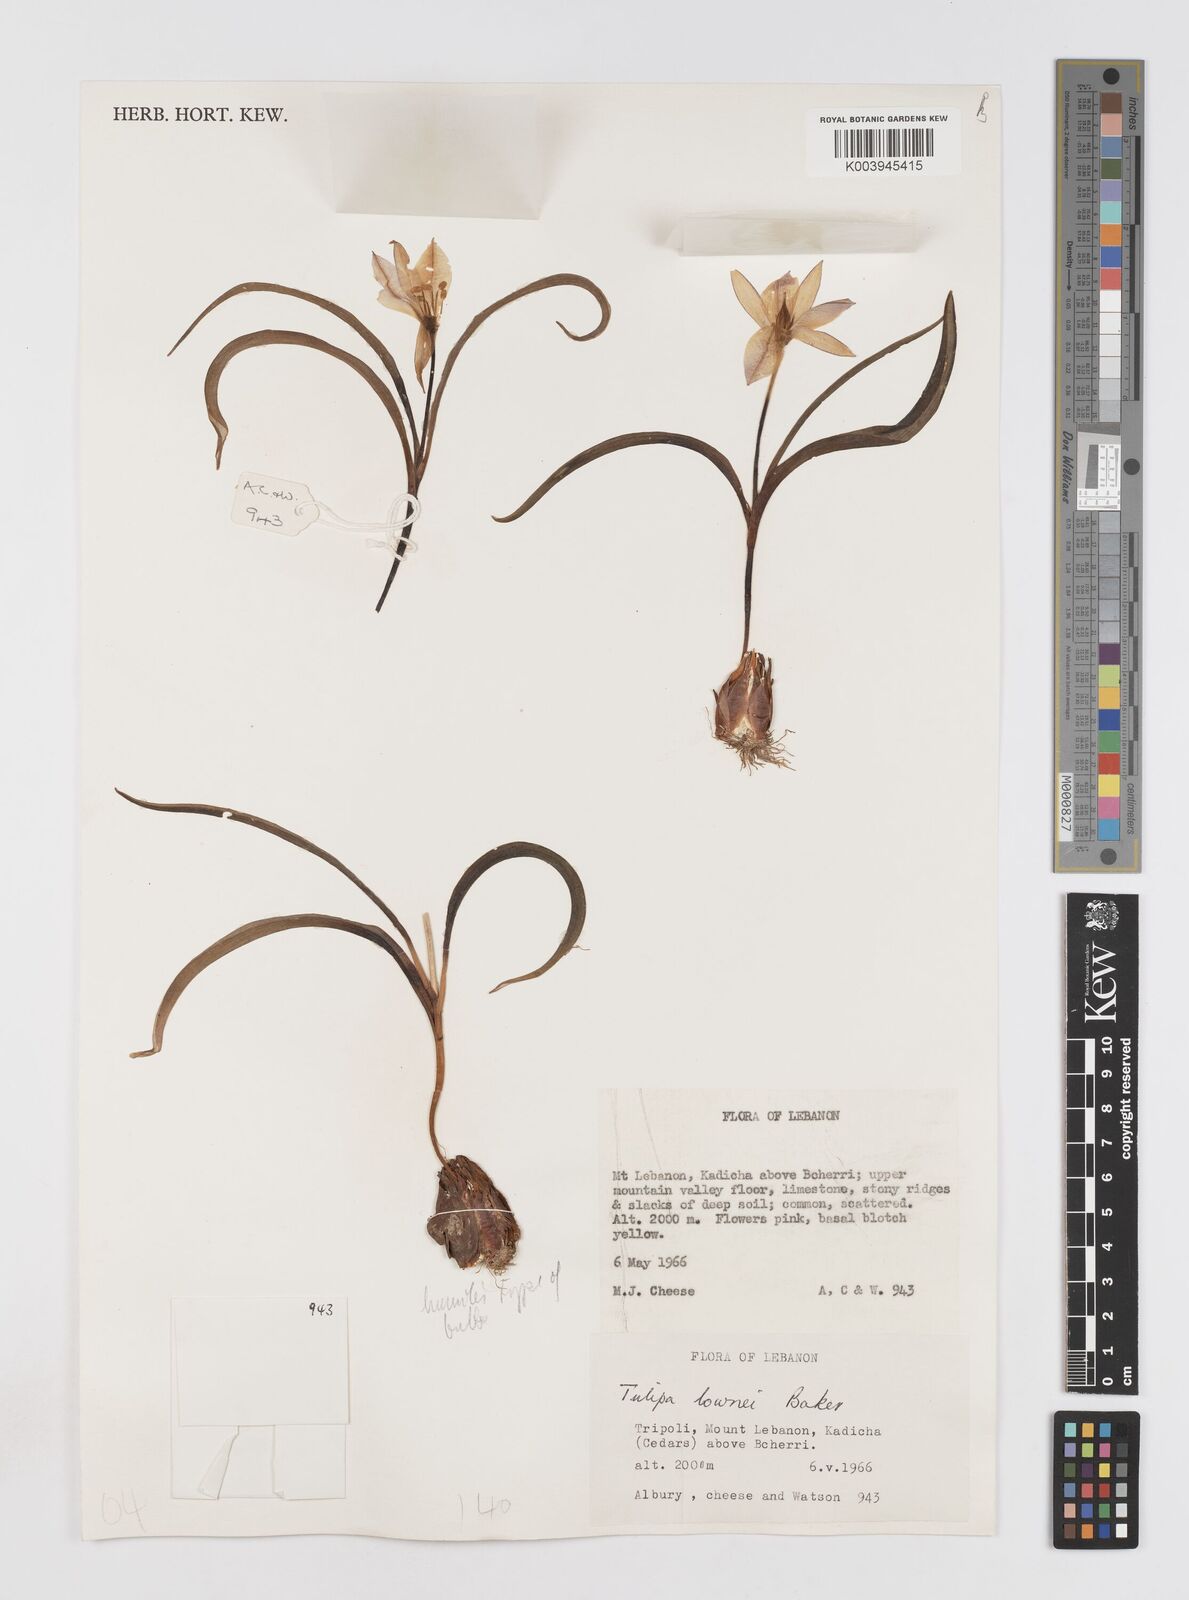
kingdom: Plantae
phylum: Tracheophyta
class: Liliopsida
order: Liliales
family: Liliaceae
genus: Tulipa
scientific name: Tulipa humilis
